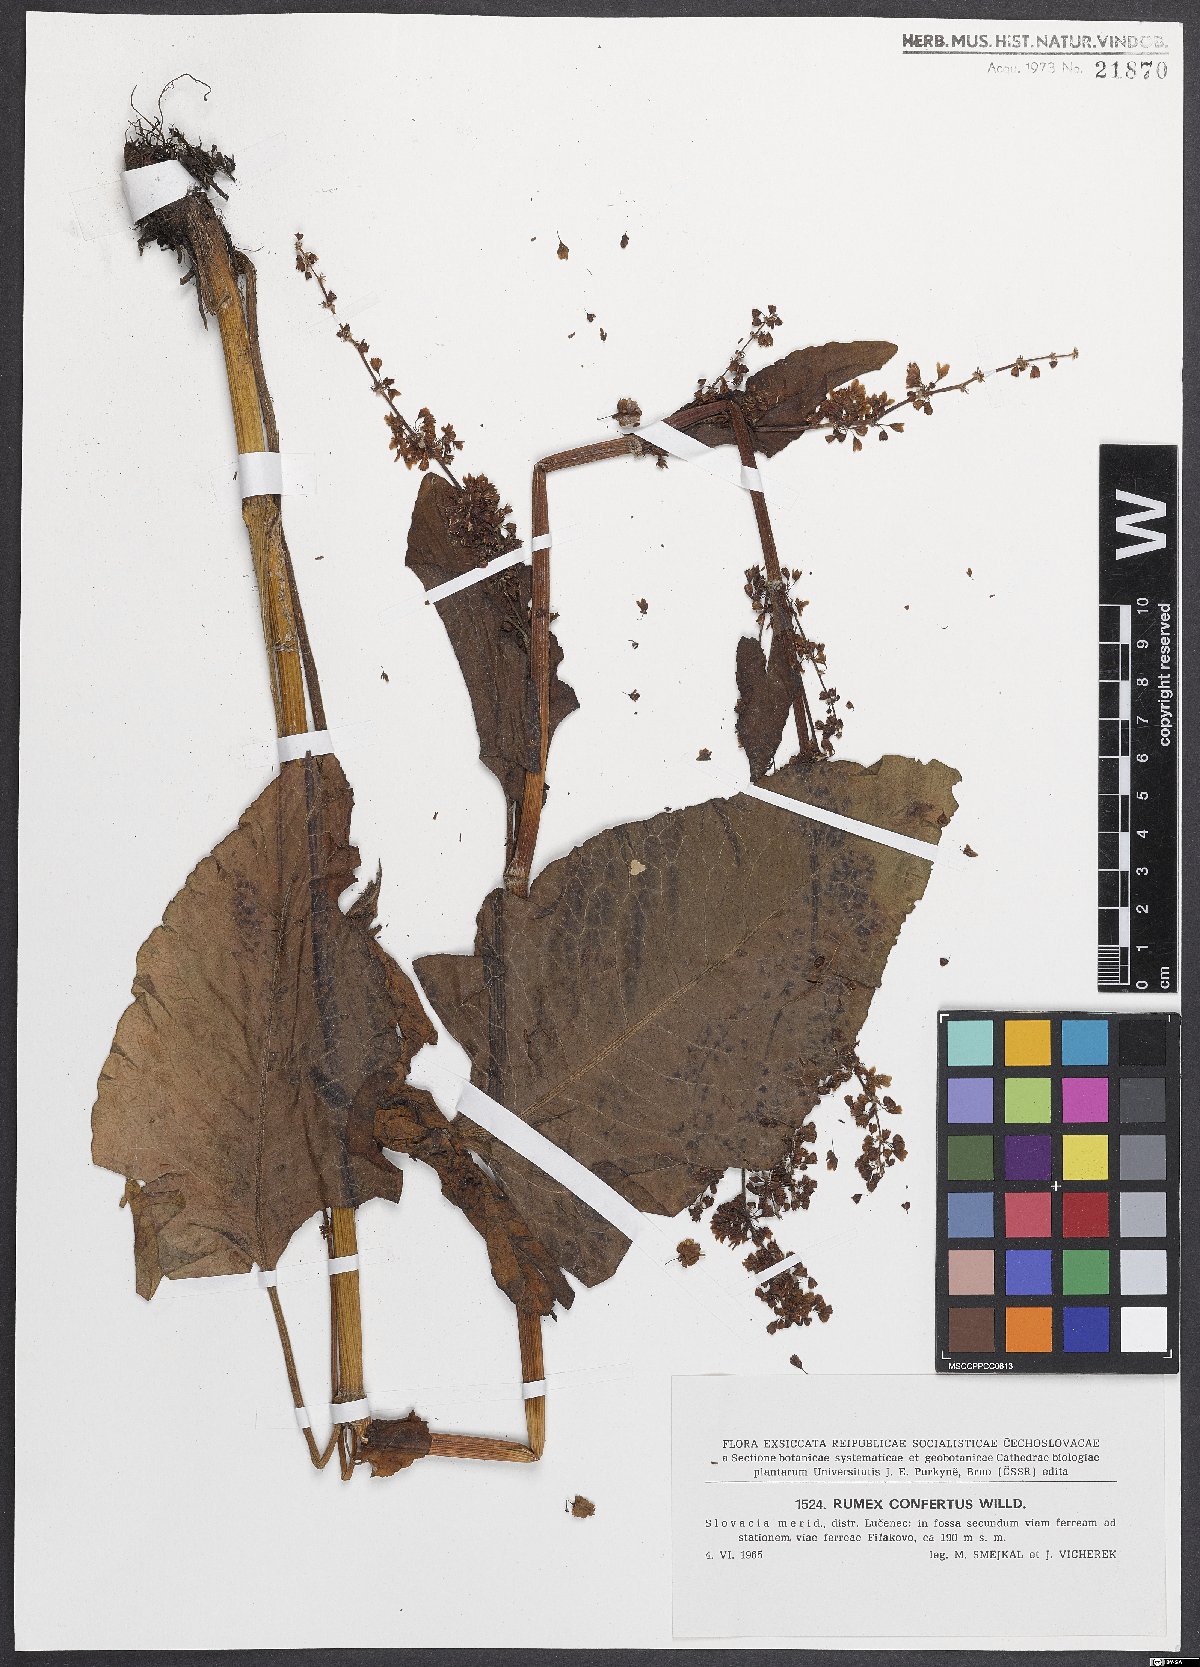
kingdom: Plantae
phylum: Tracheophyta
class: Magnoliopsida
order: Caryophyllales
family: Polygonaceae
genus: Rumex
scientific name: Rumex confertus
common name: Russian dock
